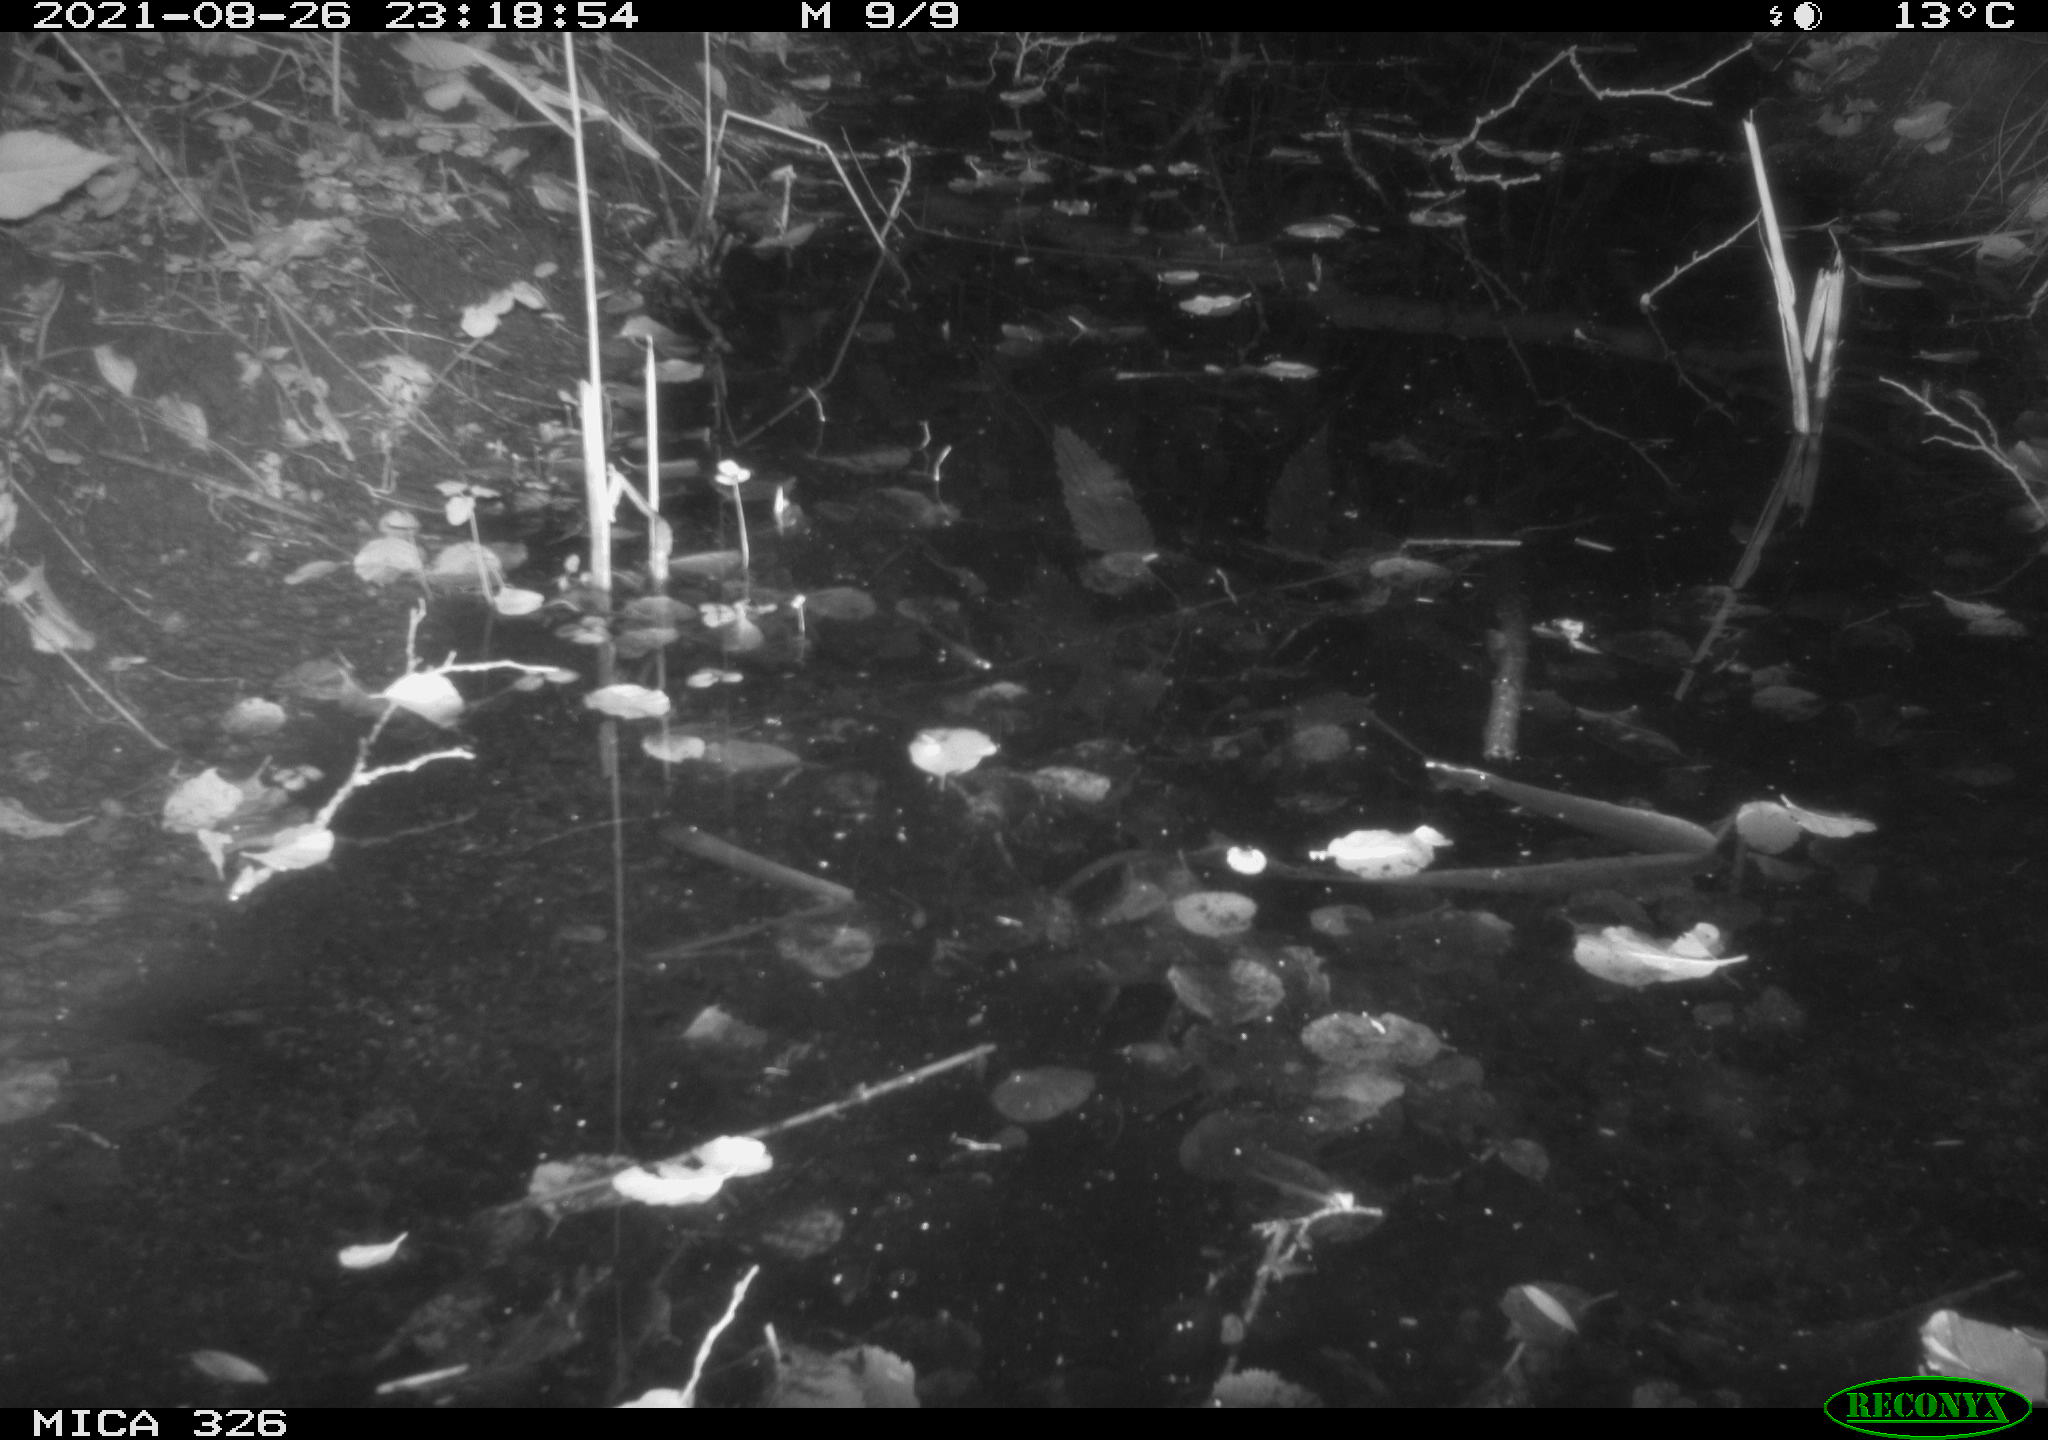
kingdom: Animalia
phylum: Chordata
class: Mammalia
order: Rodentia
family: Muridae
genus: Rattus
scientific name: Rattus norvegicus
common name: Brown rat
